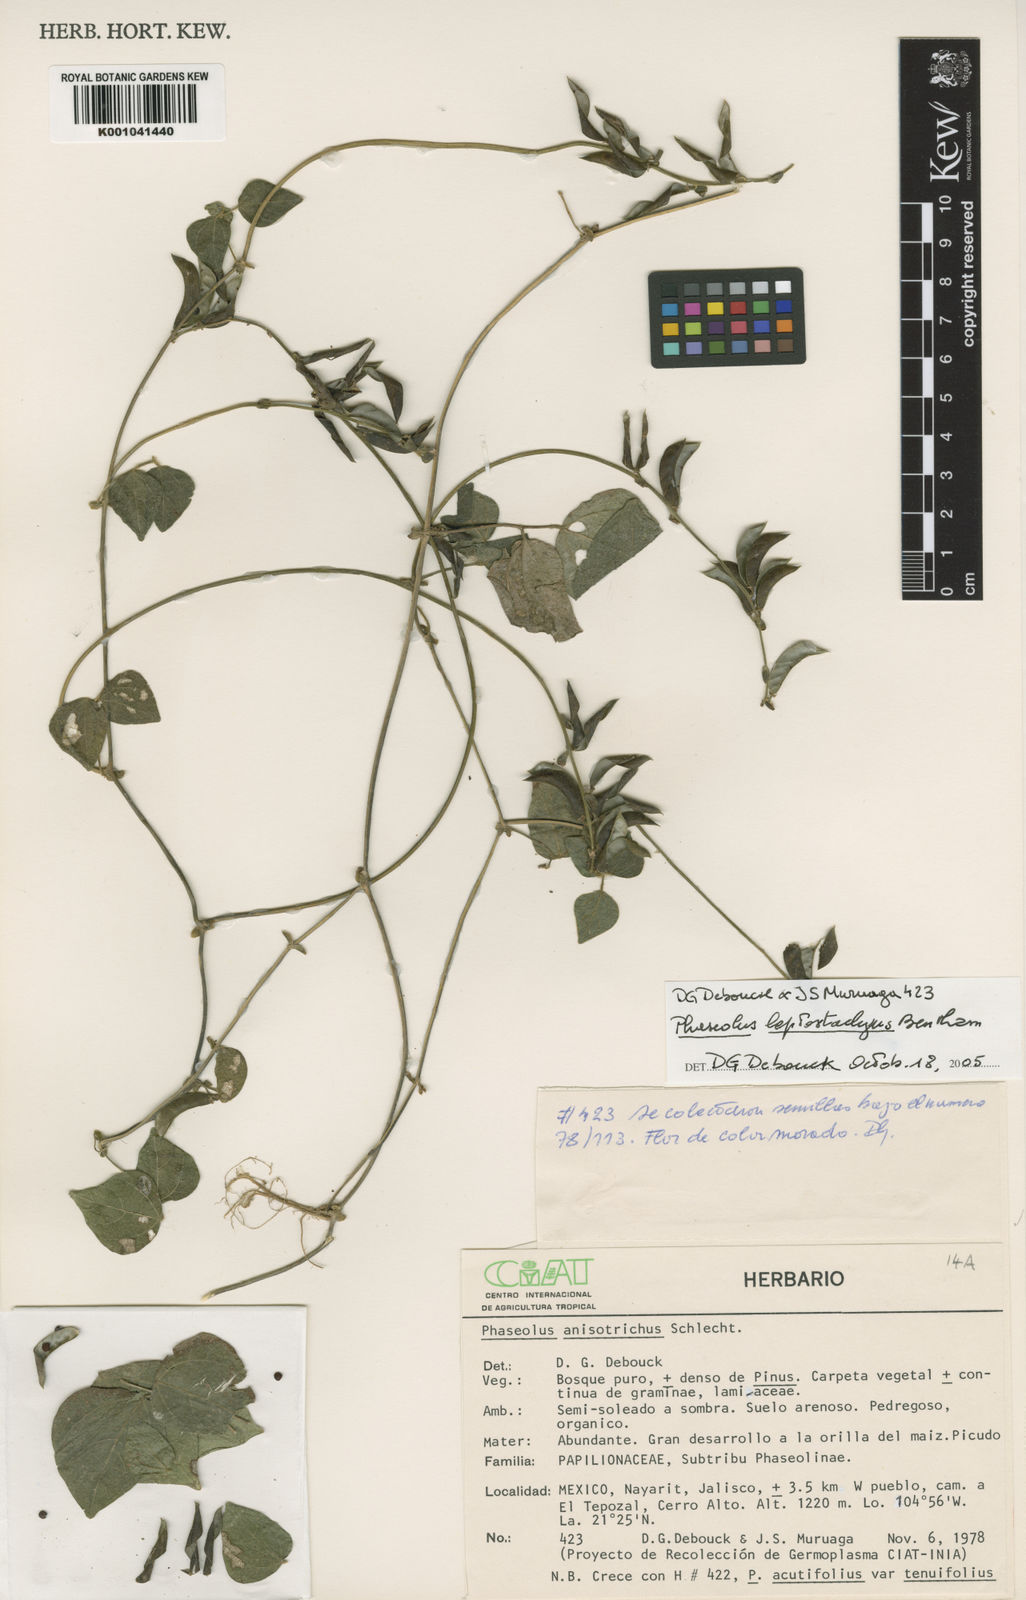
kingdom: Plantae
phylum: Tracheophyta
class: Magnoliopsida
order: Fabales
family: Fabaceae
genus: Phaseolus
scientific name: Phaseolus
